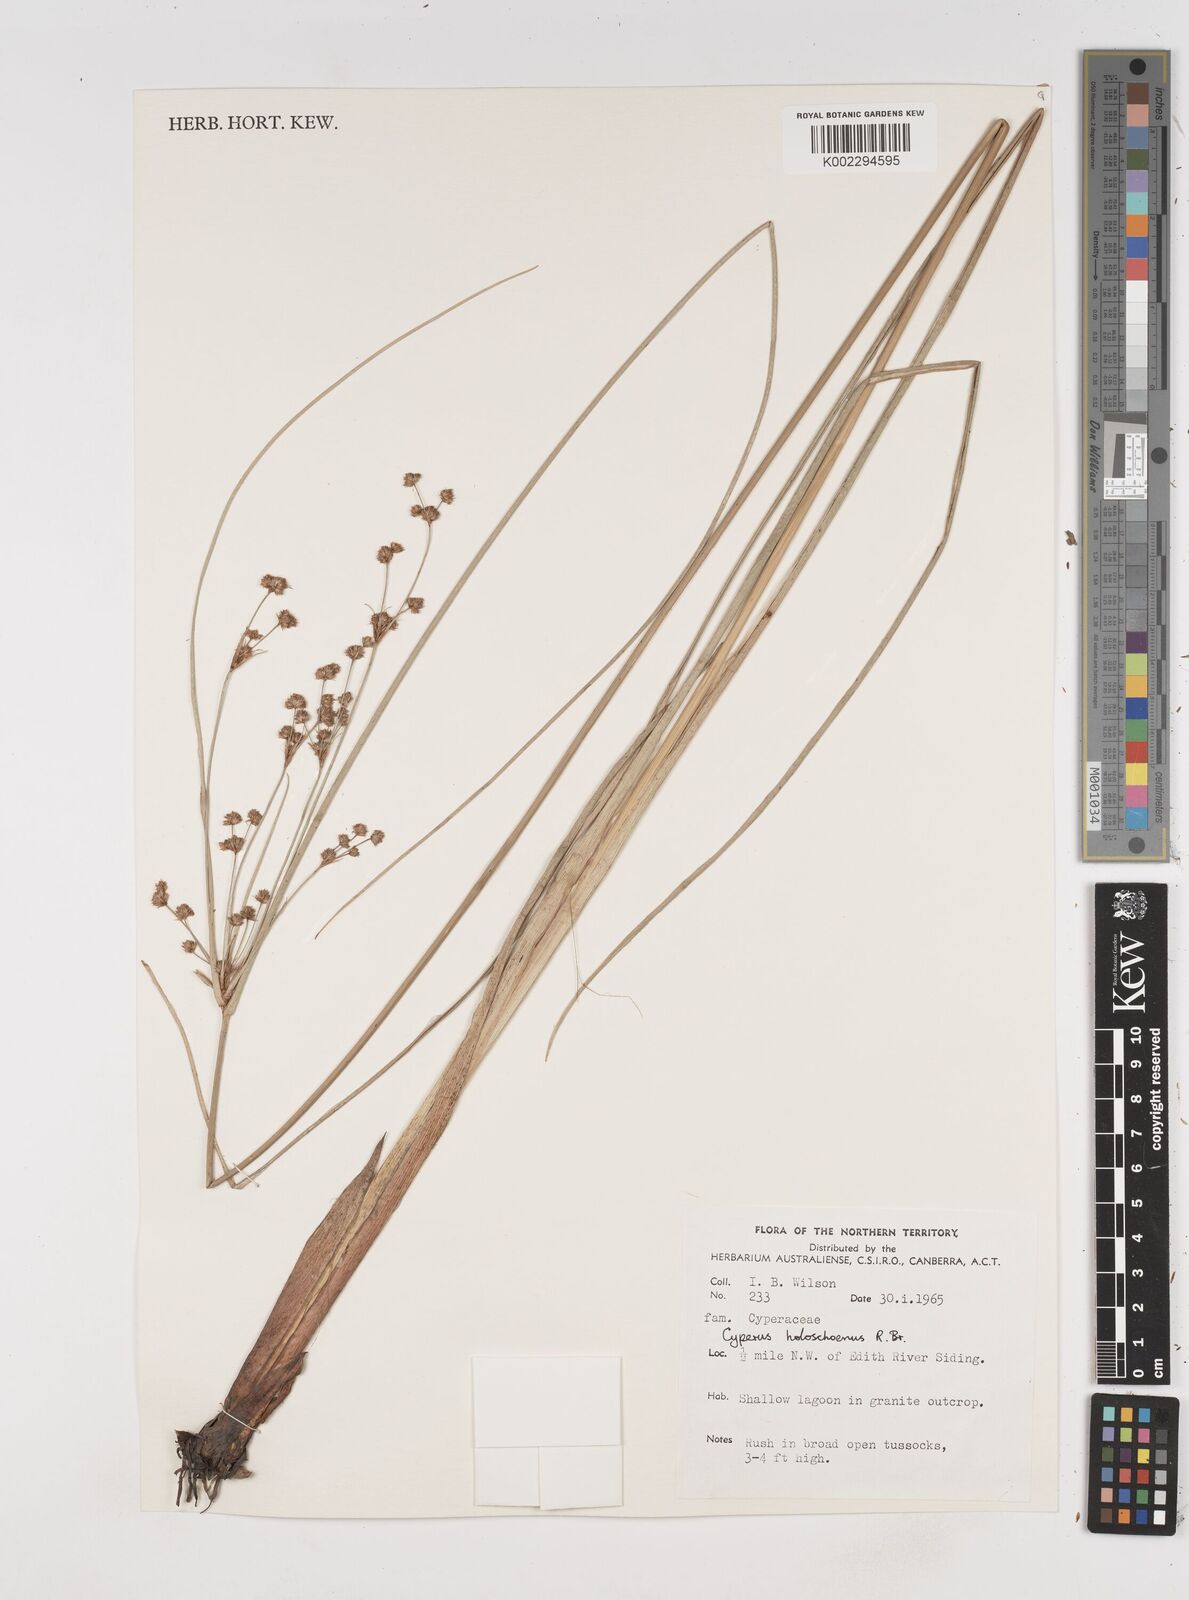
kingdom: Plantae
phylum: Tracheophyta
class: Liliopsida
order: Poales
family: Cyperaceae
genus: Cyperus
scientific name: Cyperus holoschoenus
